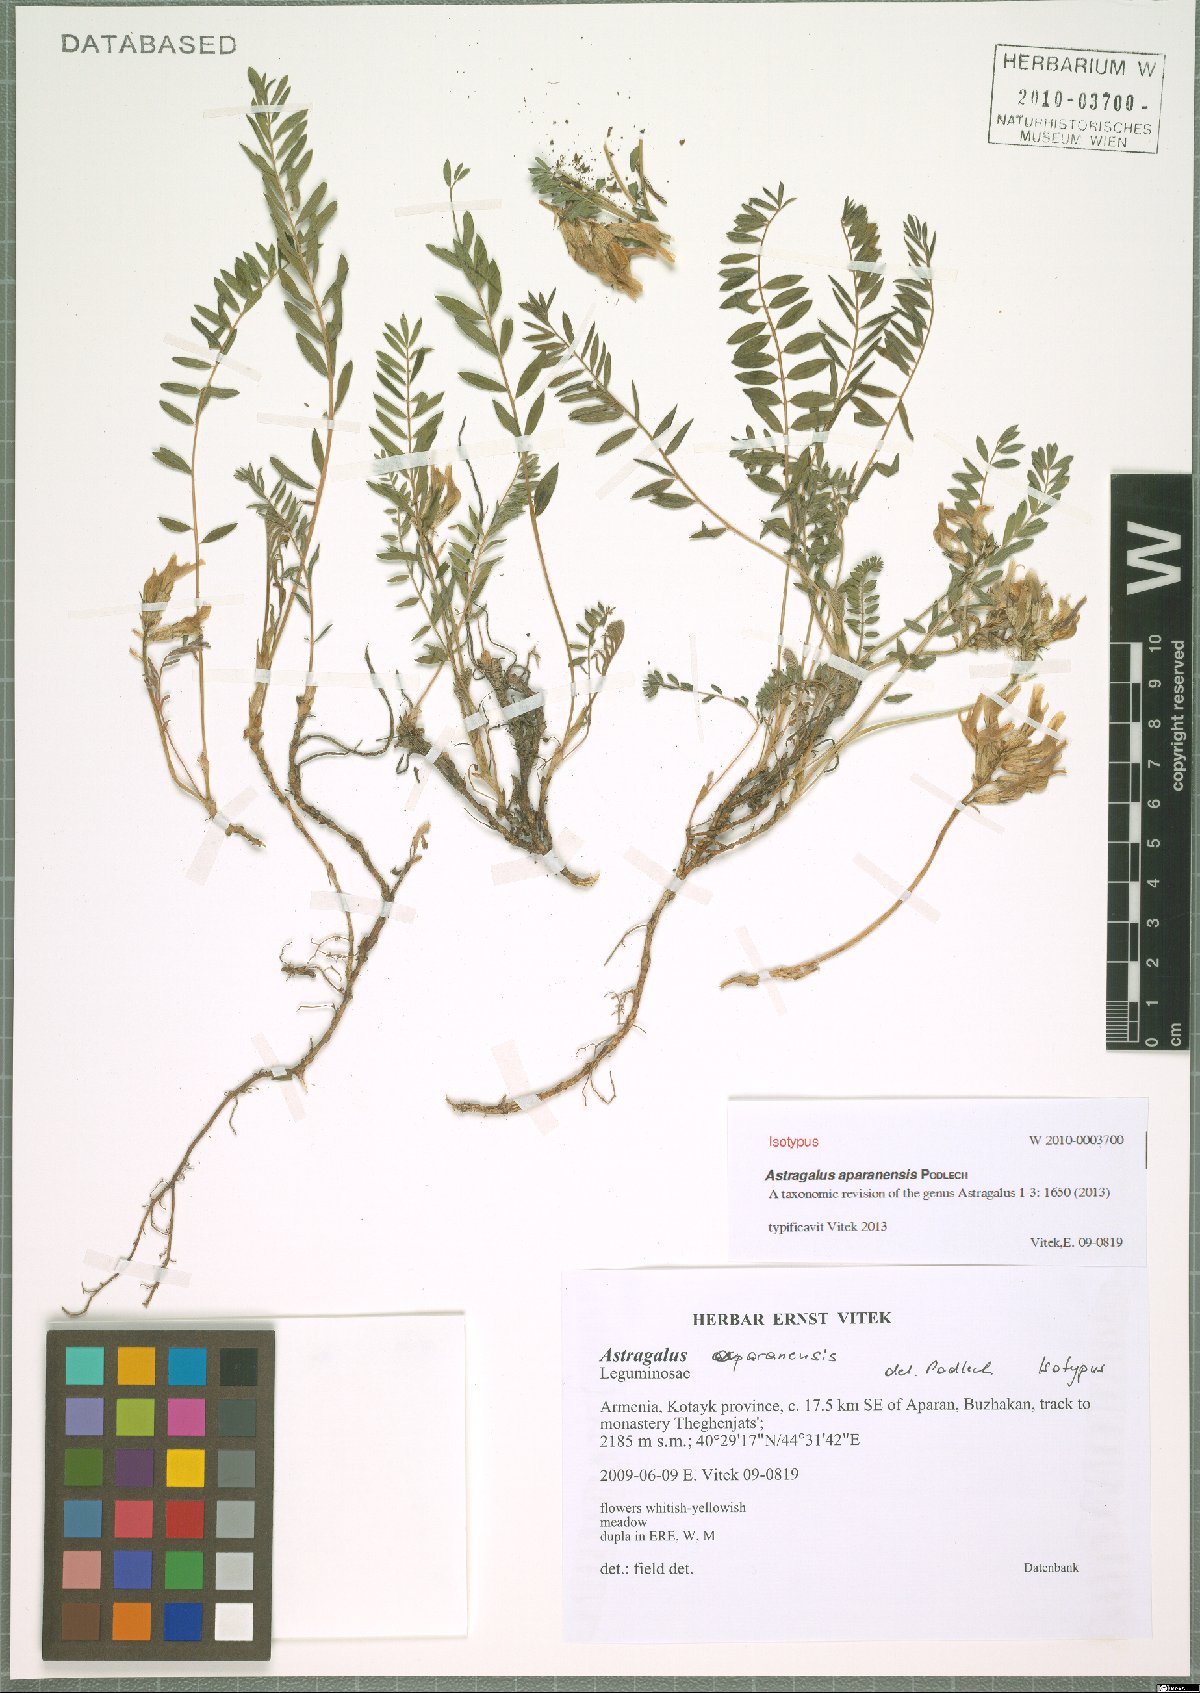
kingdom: Plantae
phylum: Tracheophyta
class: Magnoliopsida
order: Fabales
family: Fabaceae
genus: Astragalus
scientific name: Astragalus aparanensis
